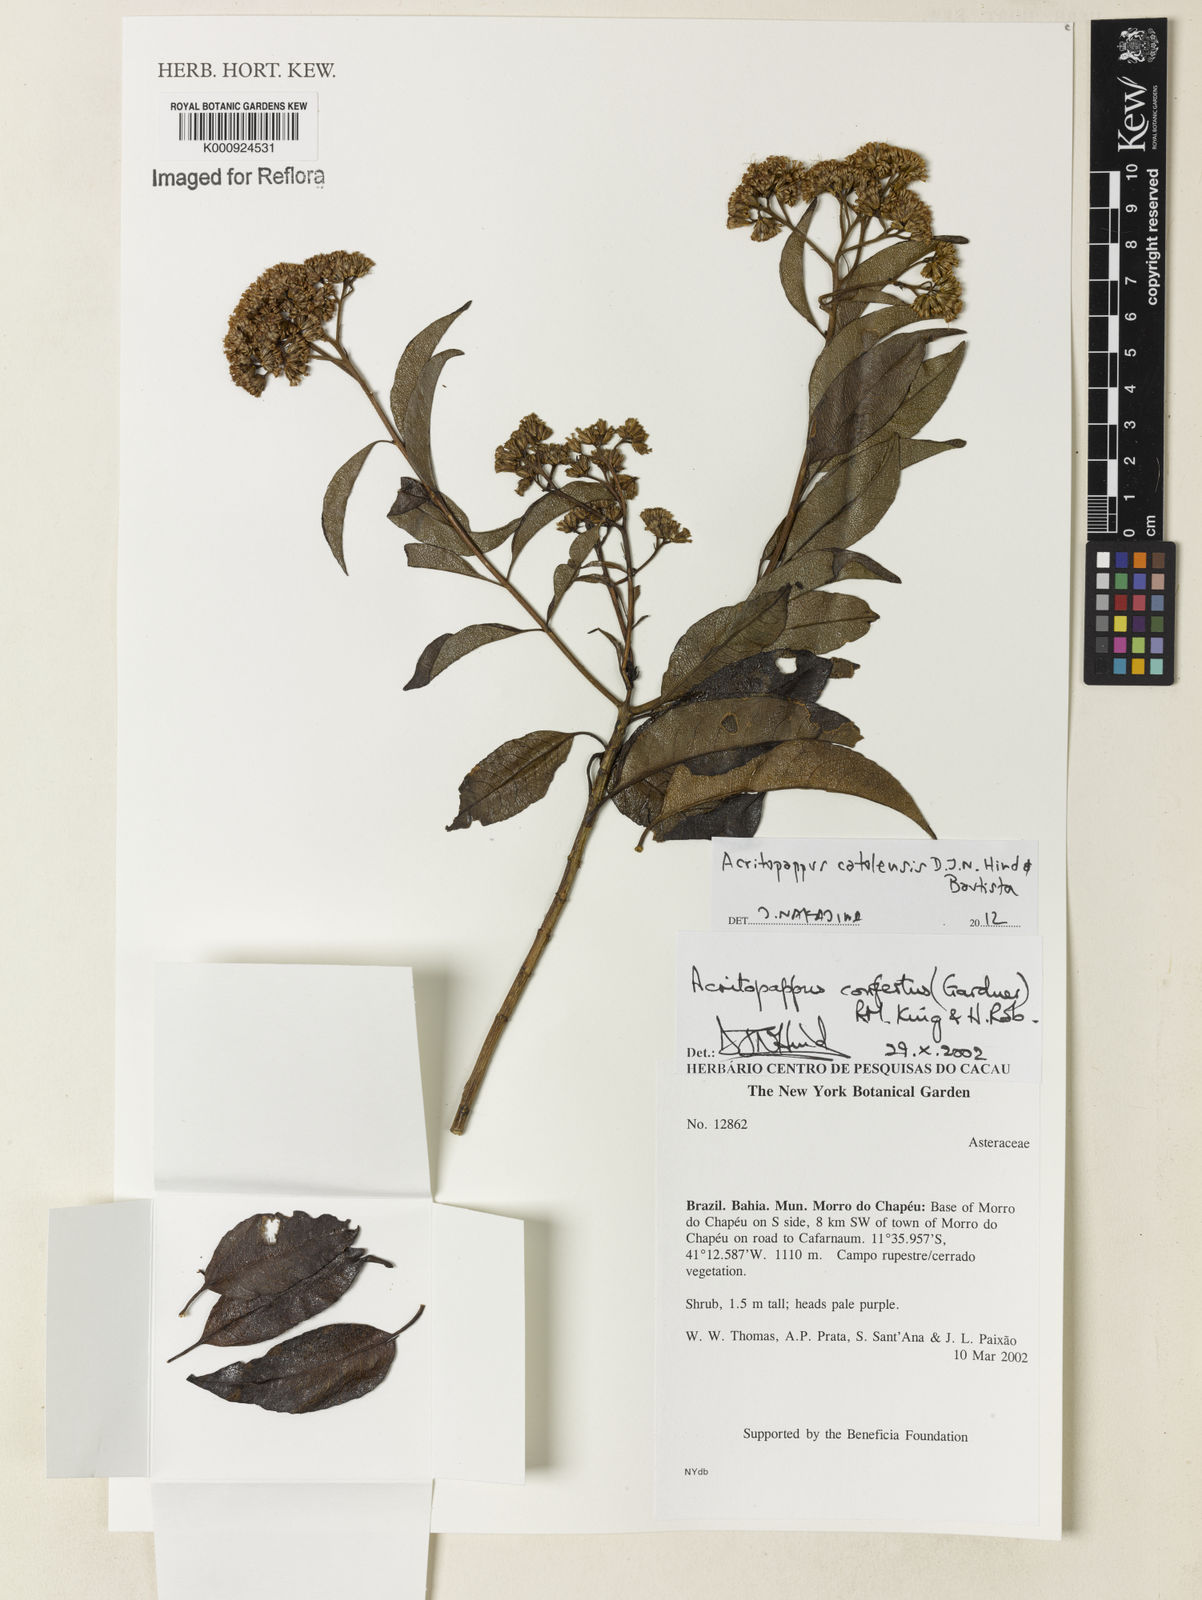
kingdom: Plantae
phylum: Tracheophyta
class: Magnoliopsida
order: Asterales
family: Asteraceae
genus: Acritopappus
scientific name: Acritopappus catolesensis
